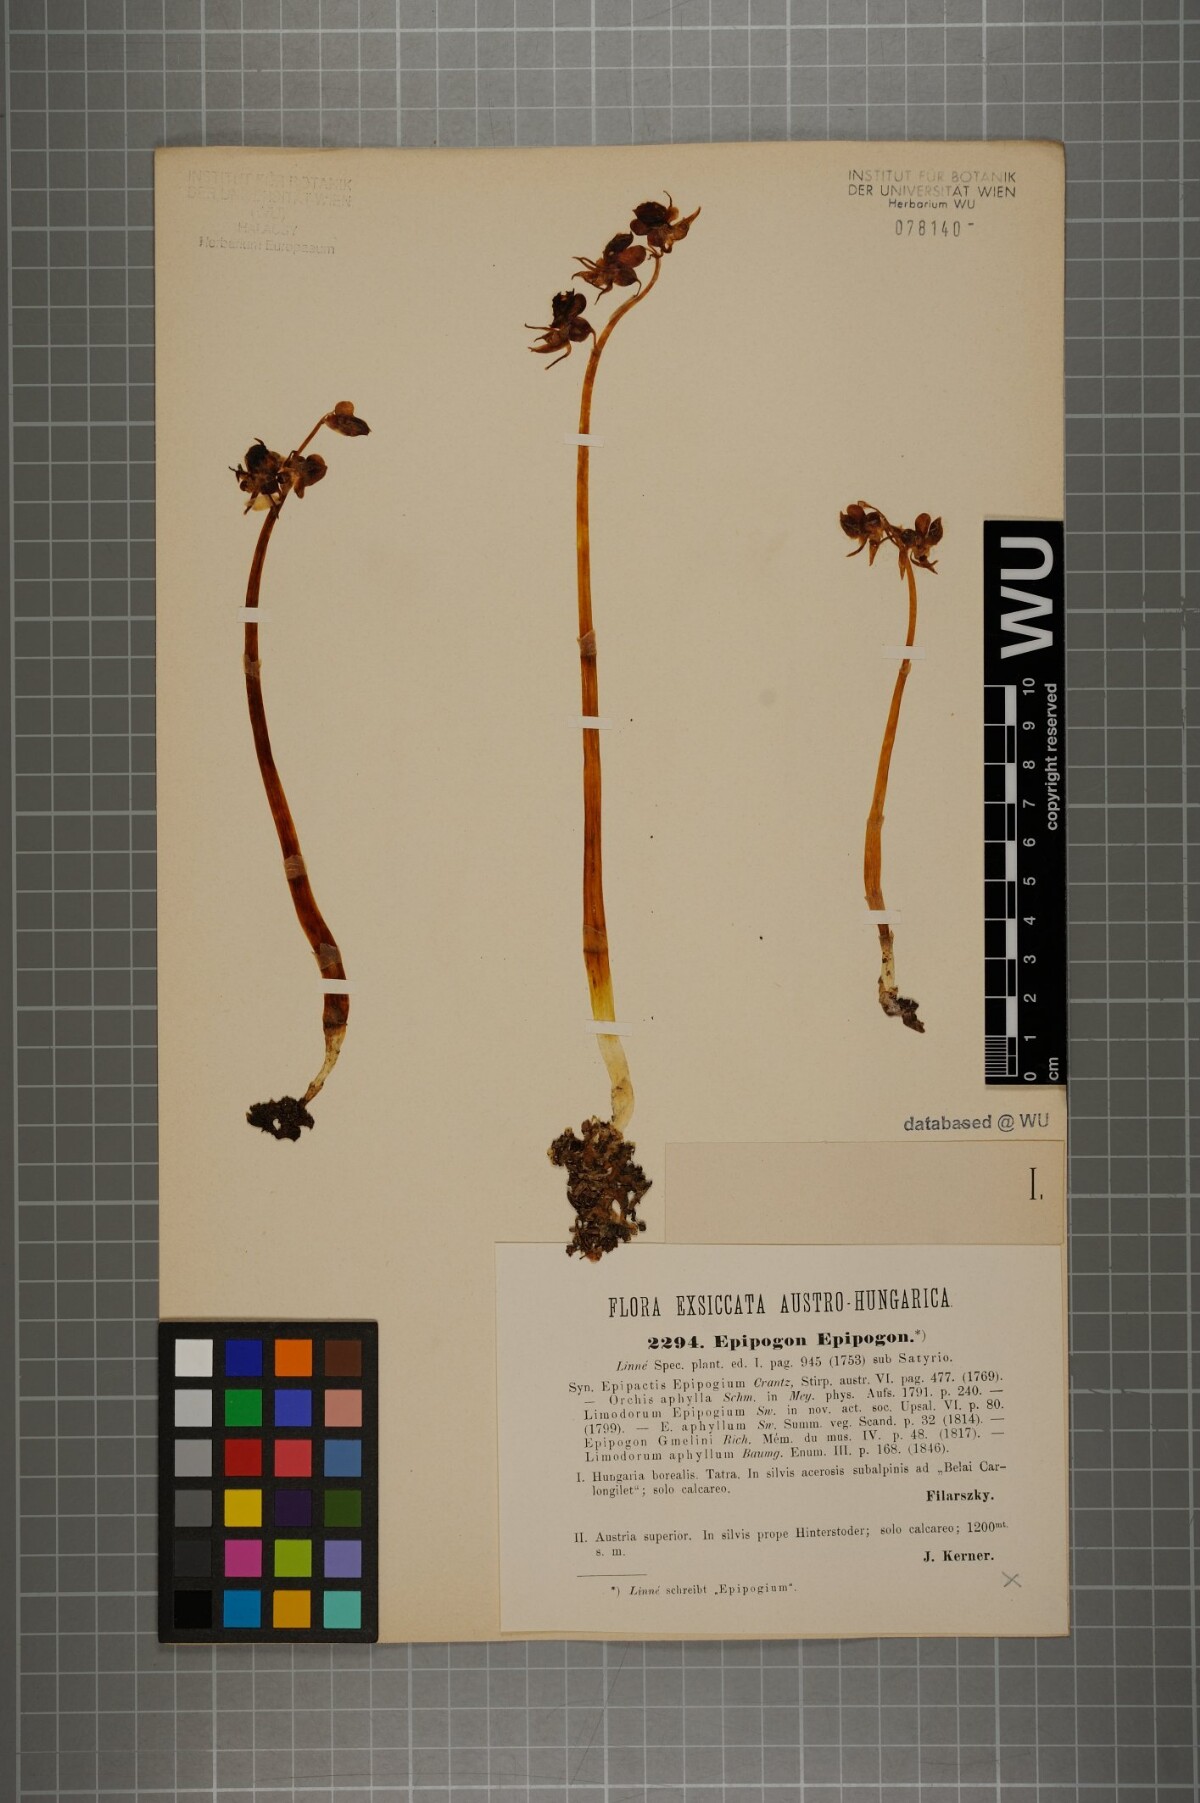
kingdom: Plantae
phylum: Tracheophyta
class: Liliopsida
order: Asparagales
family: Orchidaceae
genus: Epipogium
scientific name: Epipogium aphyllum
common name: Ghost orchid
